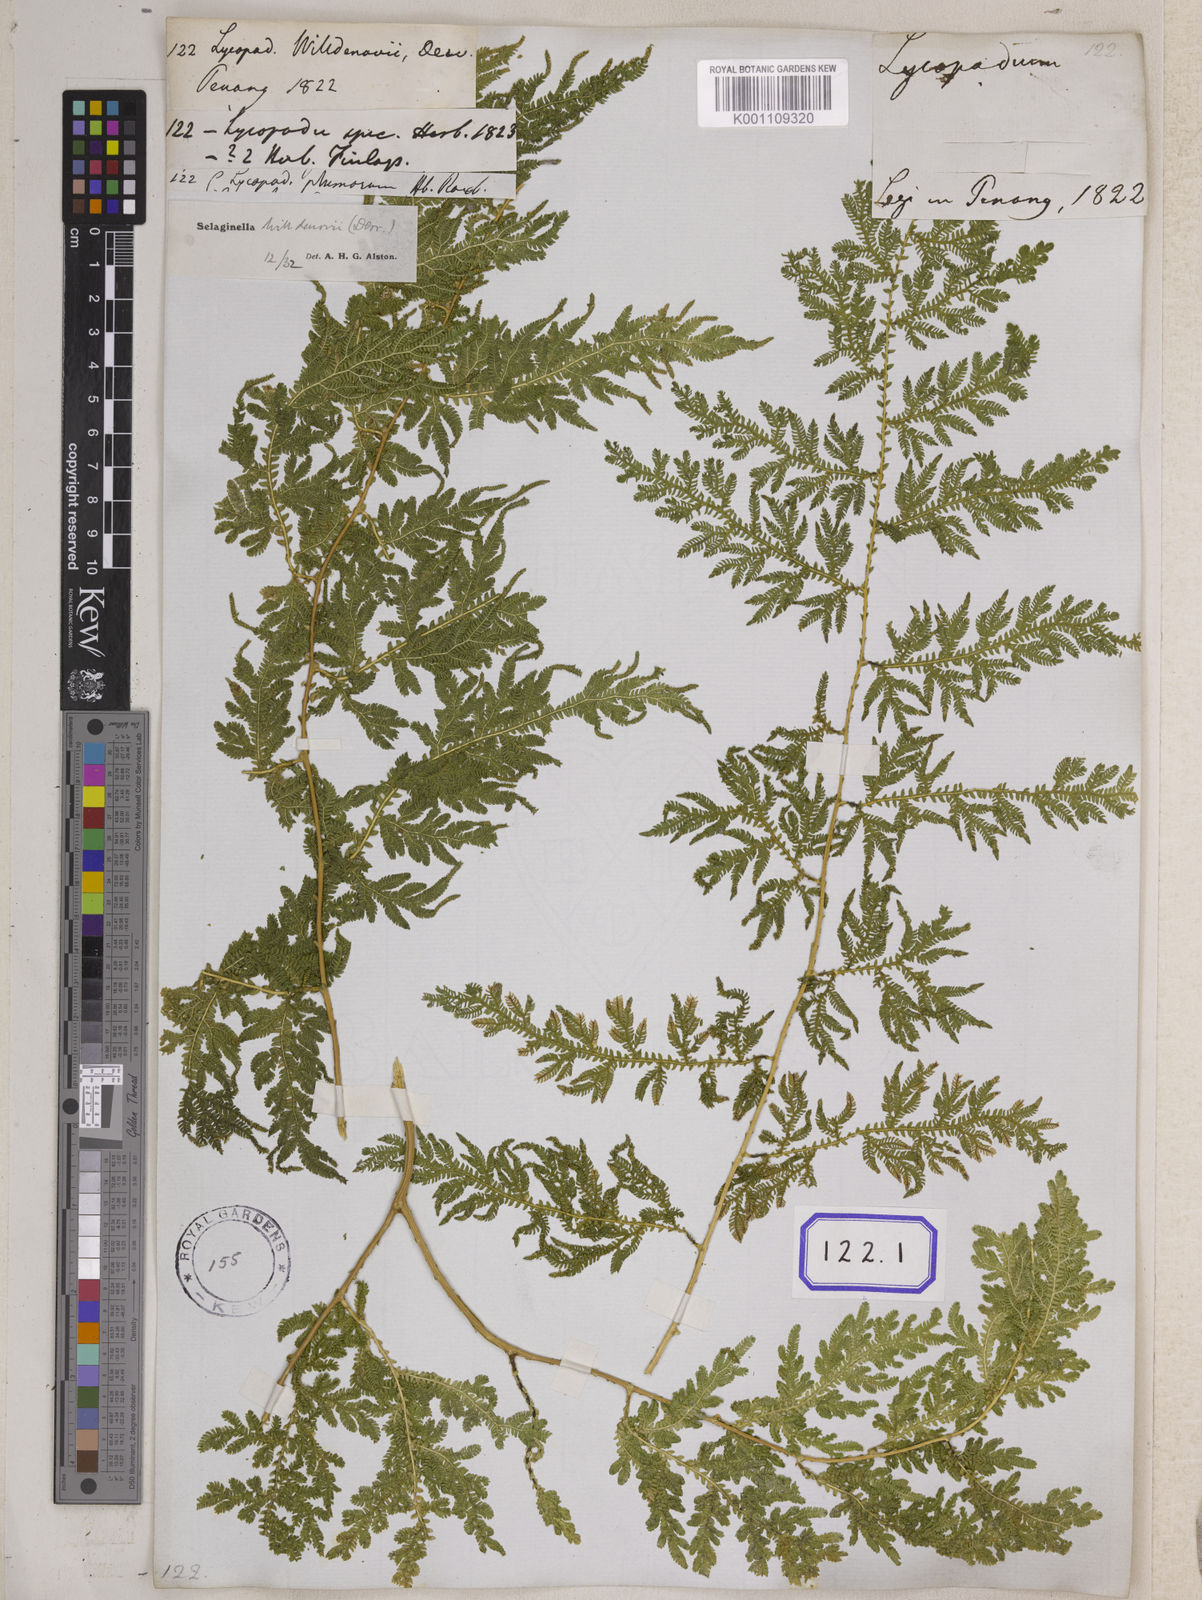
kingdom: Plantae
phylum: Tracheophyta
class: Lycopodiopsida
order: Selaginellales
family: Selaginellaceae
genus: Selaginella
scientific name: Selaginella willdenowii
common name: Willdenow's spikemoss
